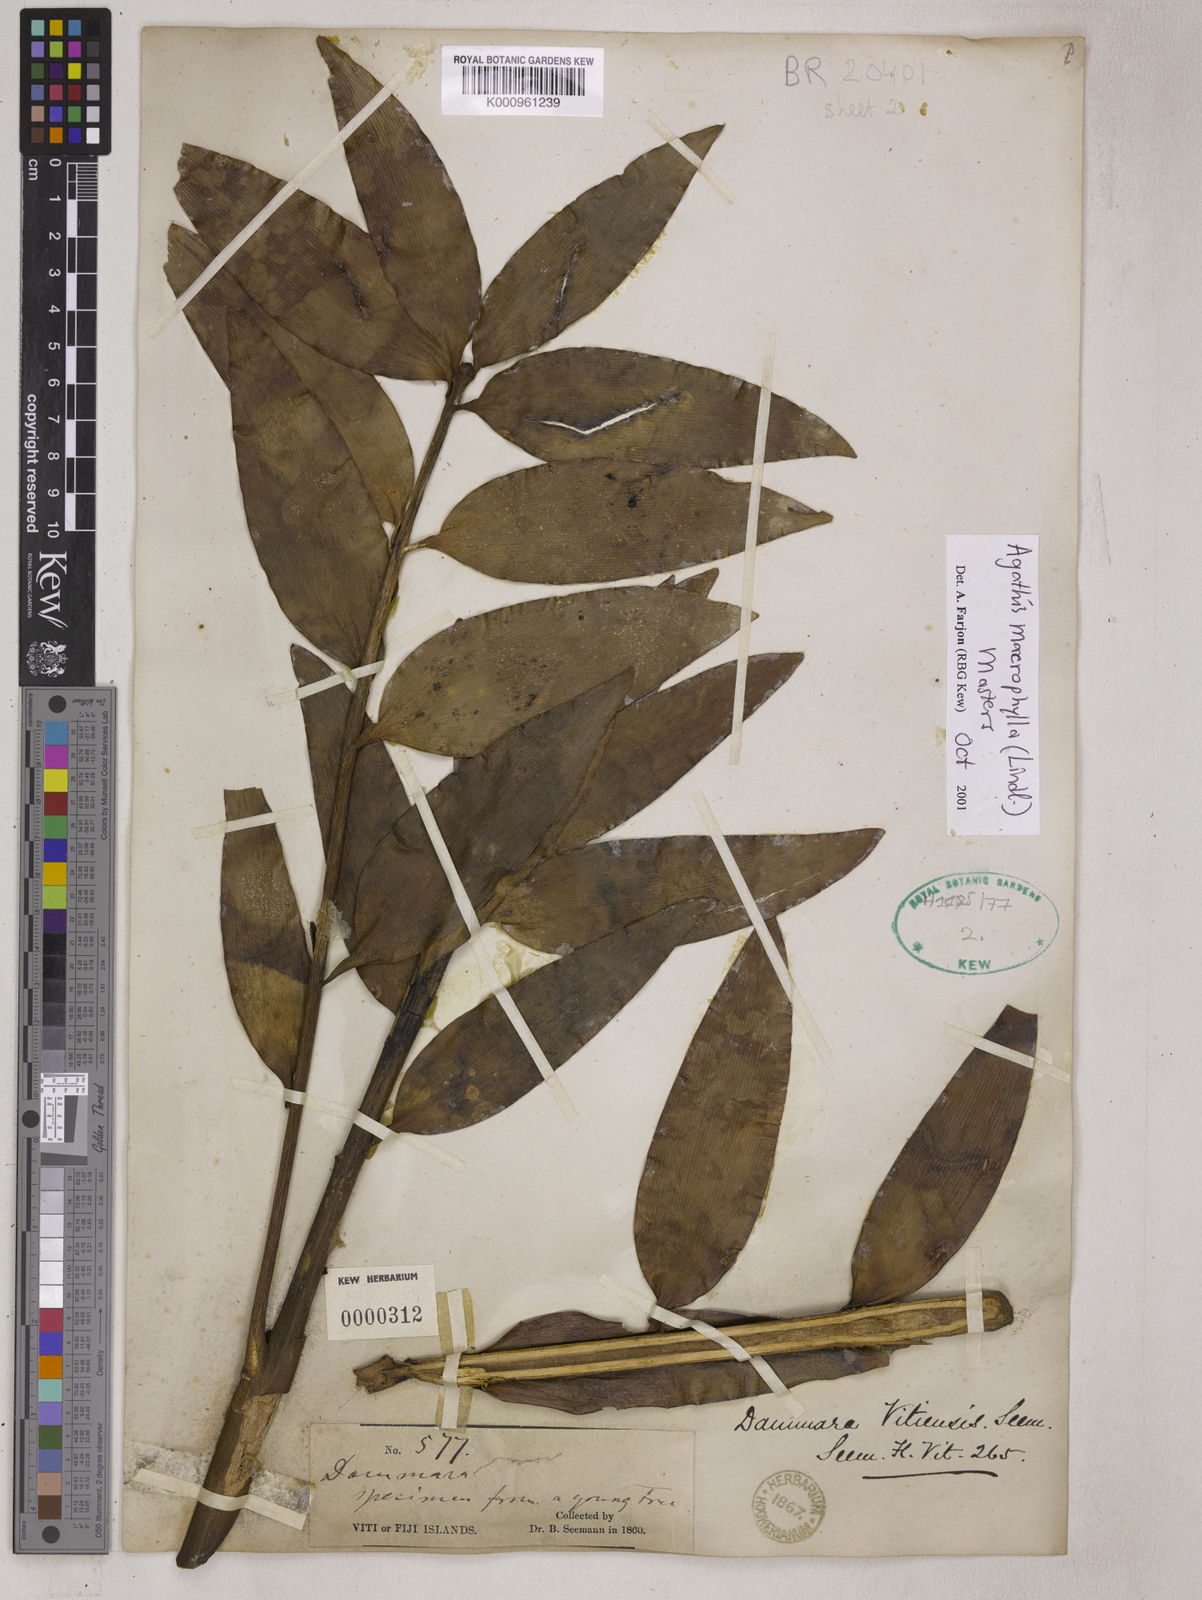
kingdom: Plantae
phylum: Tracheophyta
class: Pinopsida
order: Pinales
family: Araucariaceae
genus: Agathis
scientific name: Agathis macrophylla
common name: Fijian kauri pine
